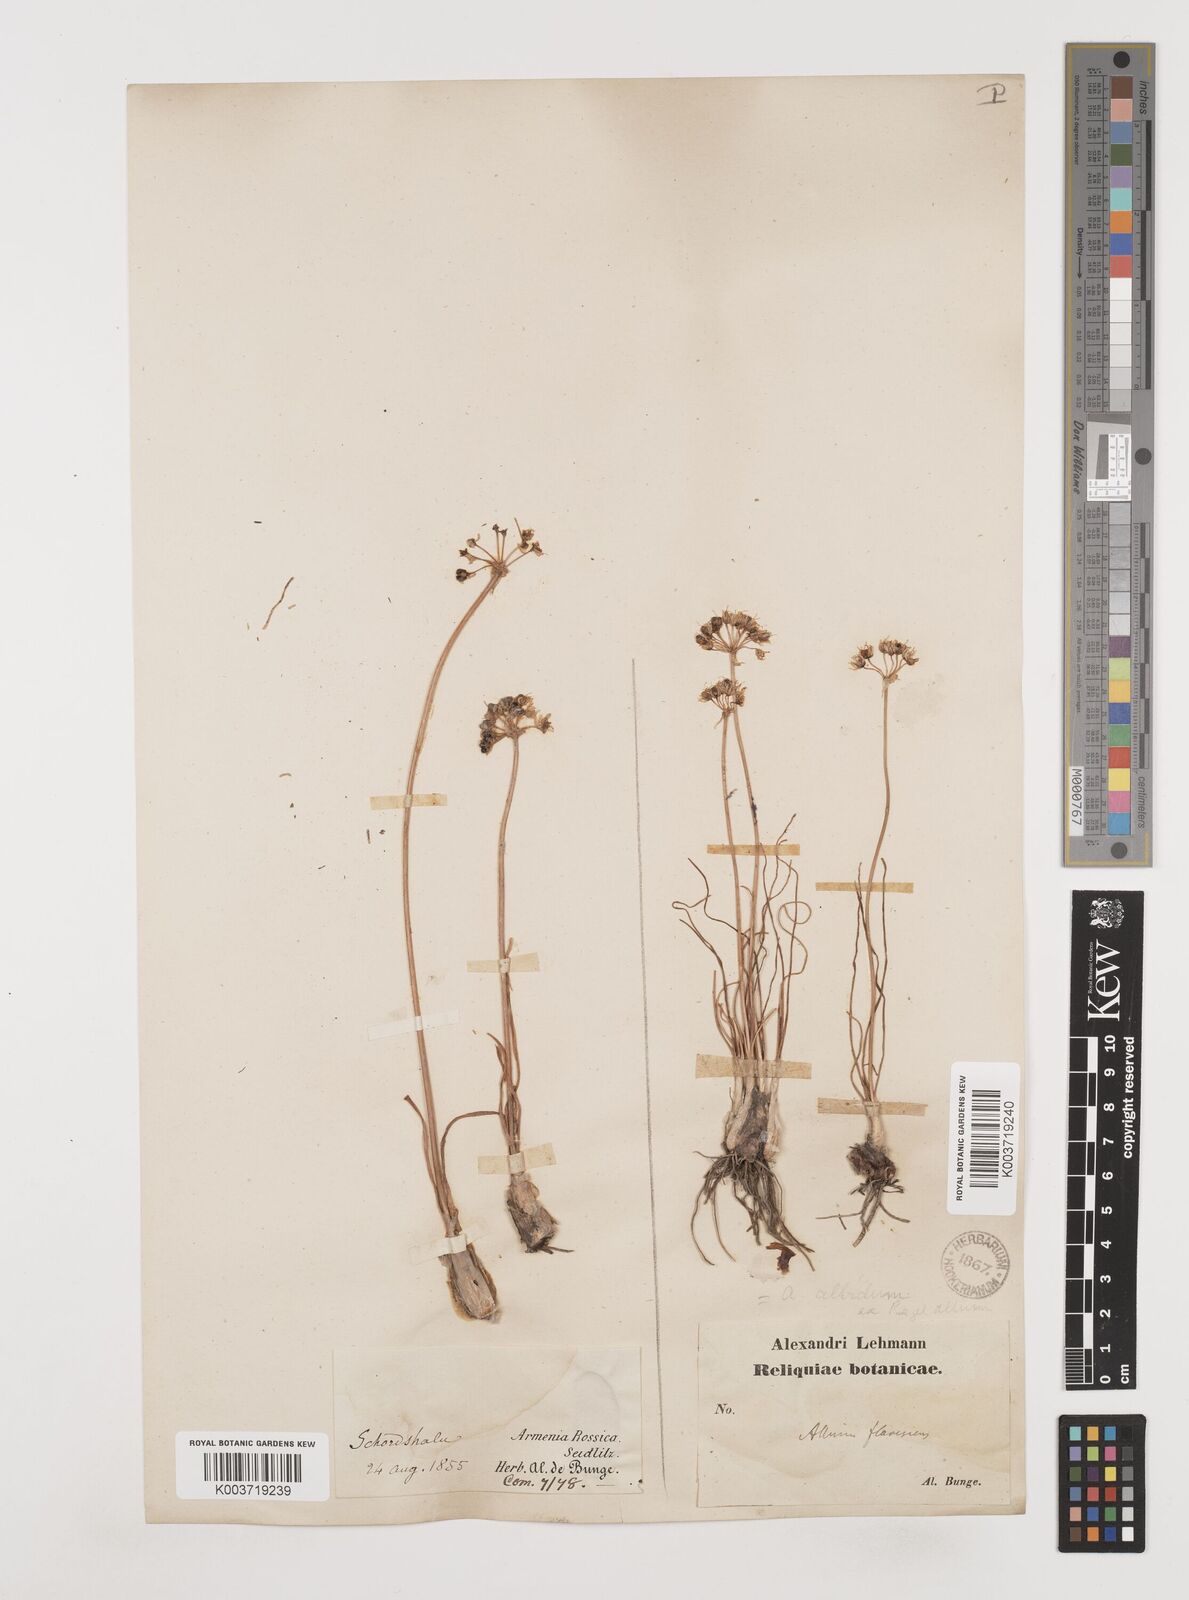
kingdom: Plantae
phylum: Tracheophyta
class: Liliopsida
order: Asparagales
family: Amaryllidaceae
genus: Allium
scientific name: Allium denudatum
